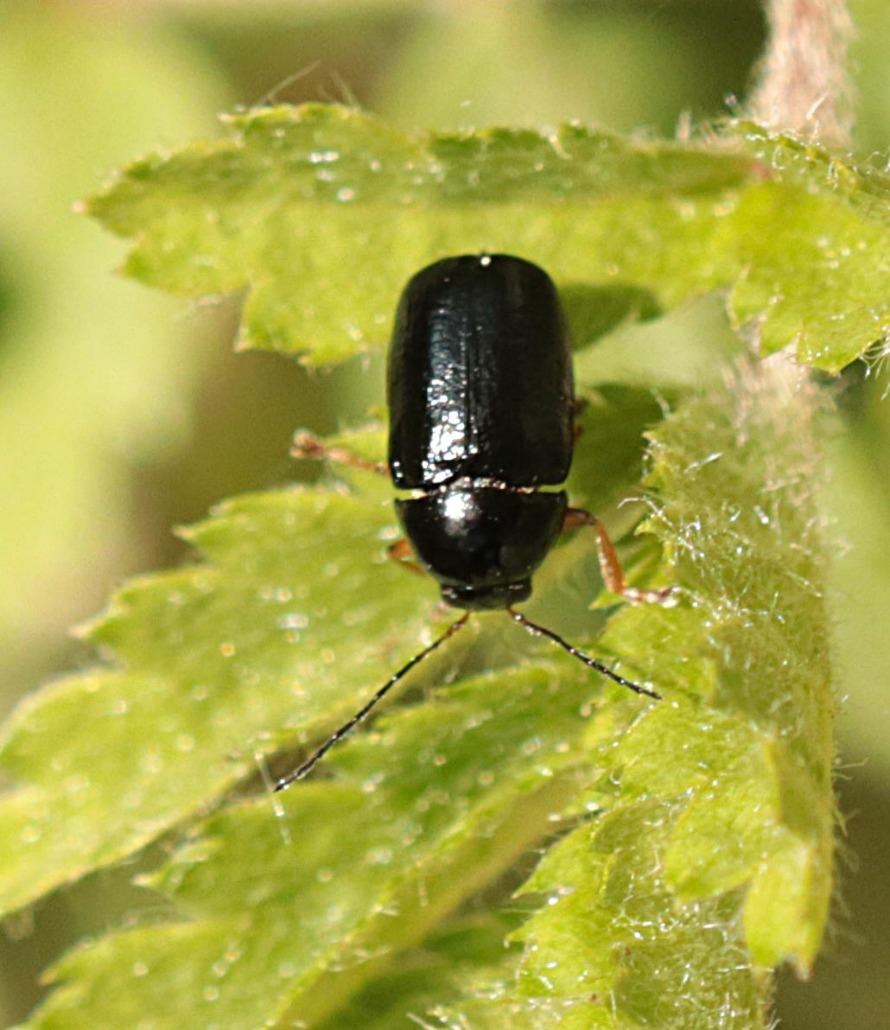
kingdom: Animalia
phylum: Arthropoda
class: Insecta
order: Coleoptera
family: Chrysomelidae
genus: Cryptocephalus
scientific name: Cryptocephalus nitidus
